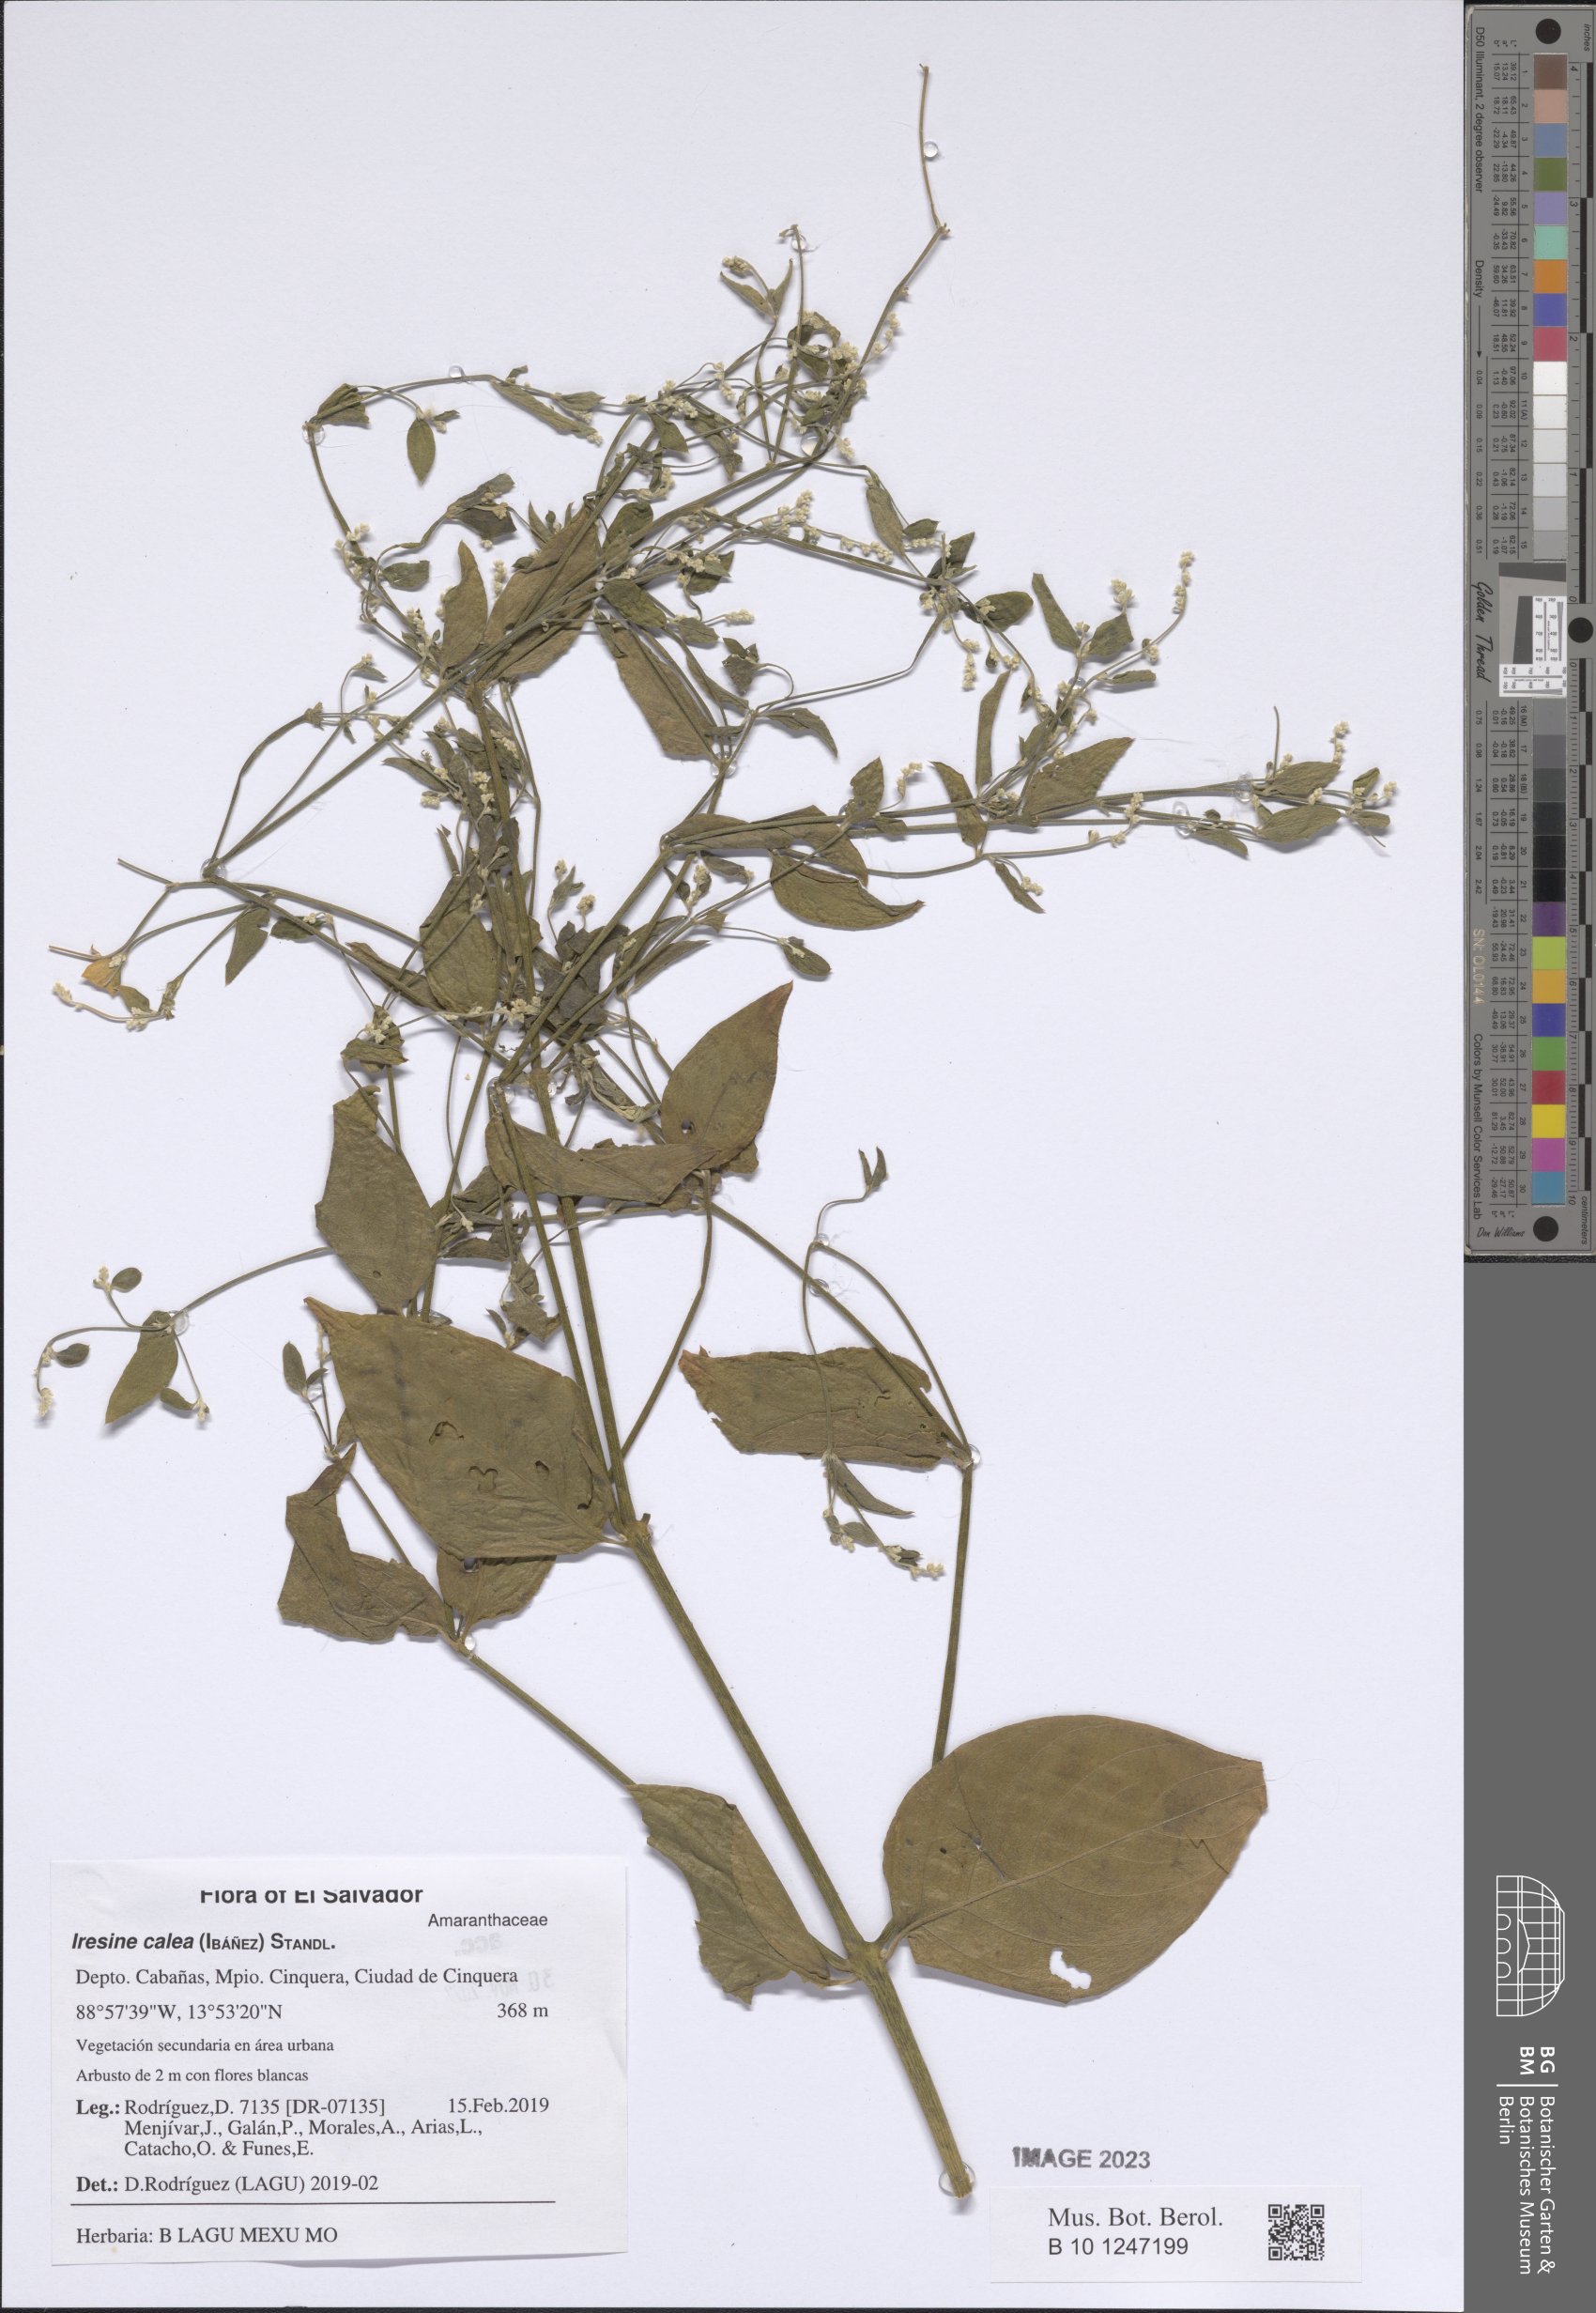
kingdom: Plantae
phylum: Tracheophyta
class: Magnoliopsida
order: Caryophyllales
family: Amaranthaceae
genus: Iresine
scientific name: Iresine latifolia
